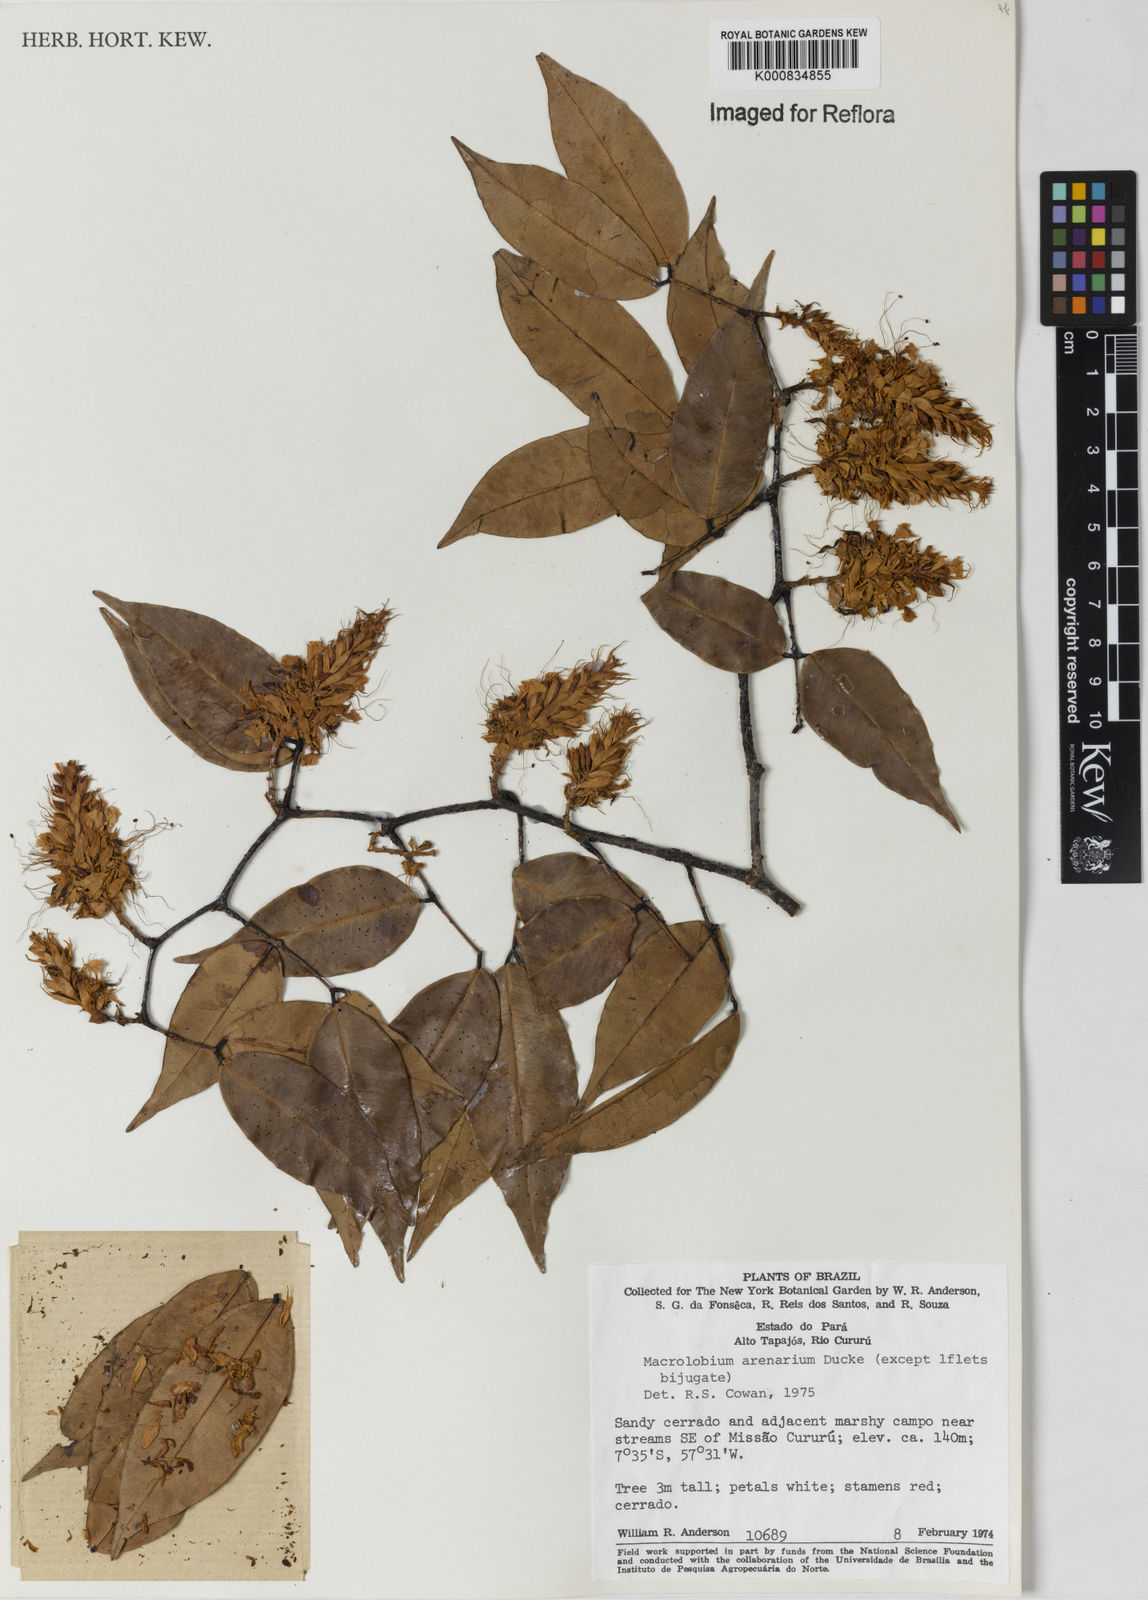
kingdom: Plantae
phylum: Tracheophyta
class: Magnoliopsida
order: Fabales
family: Fabaceae
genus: Macrolobium
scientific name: Macrolobium arenarium
